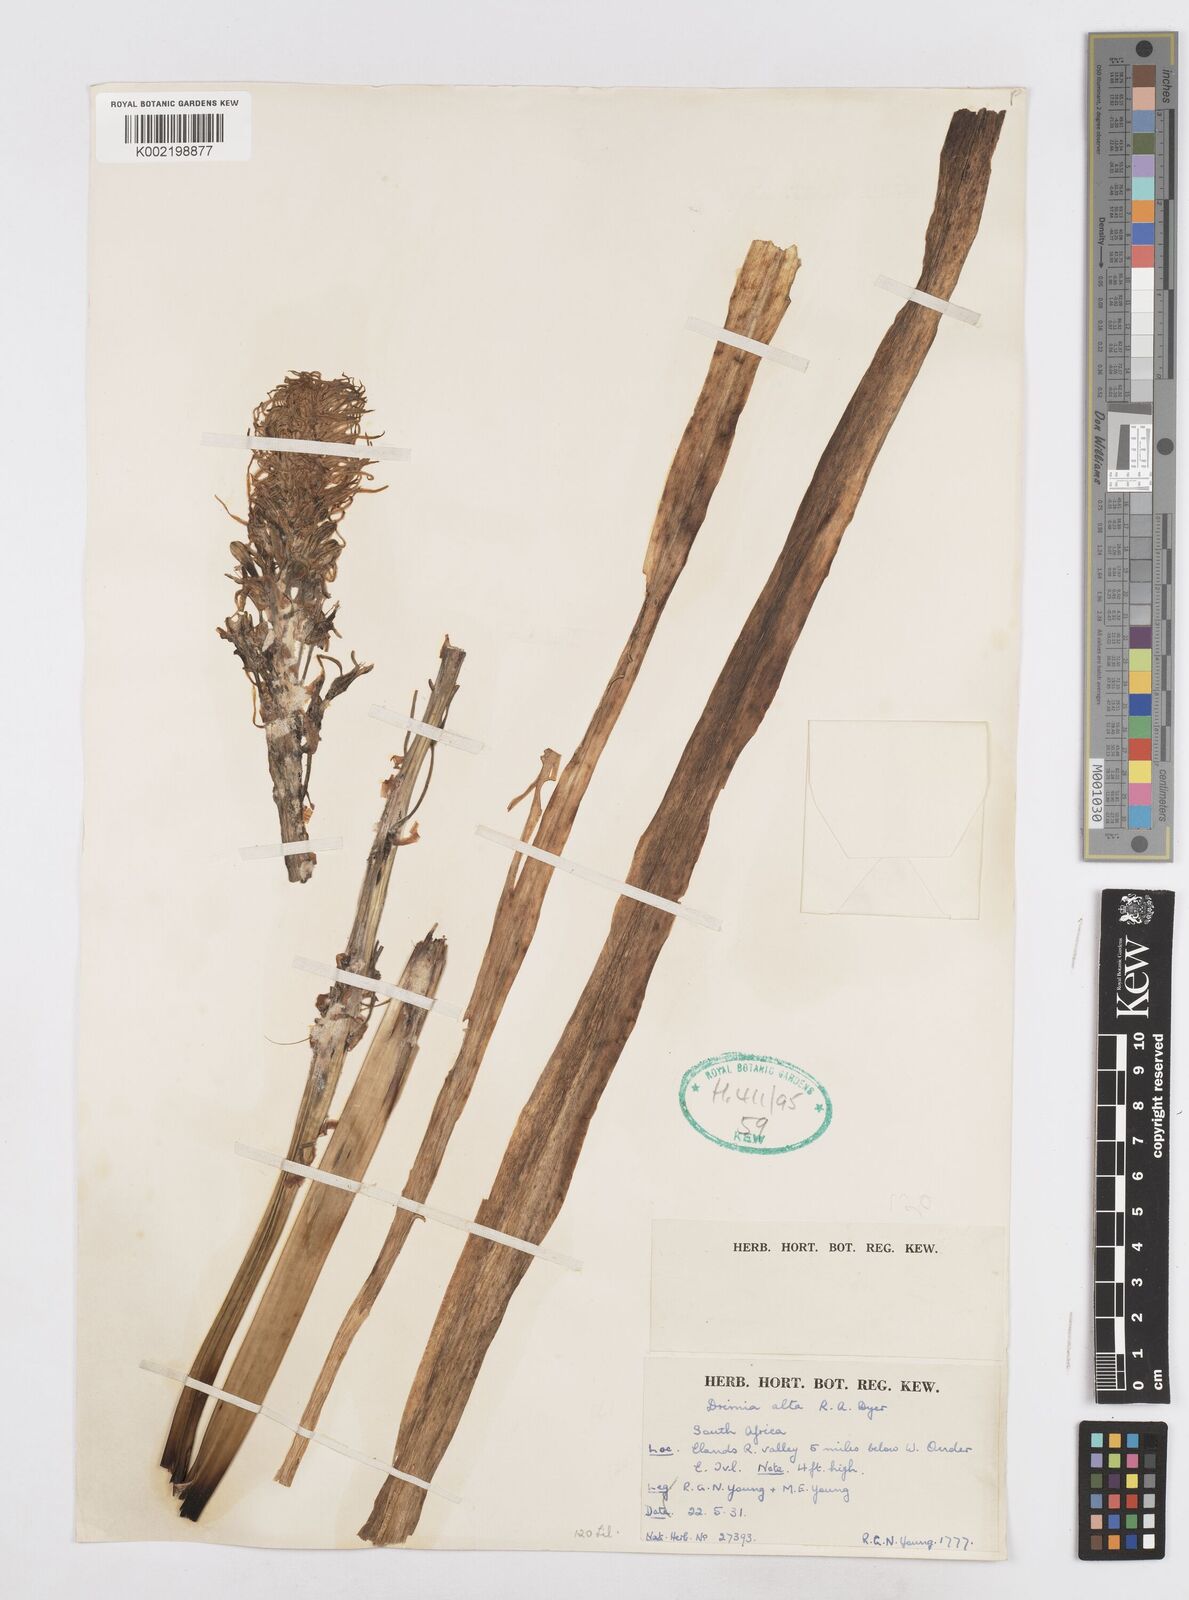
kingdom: Plantae
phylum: Tracheophyta
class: Liliopsida
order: Asparagales
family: Asparagaceae
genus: Drimia
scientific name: Drimia elata
